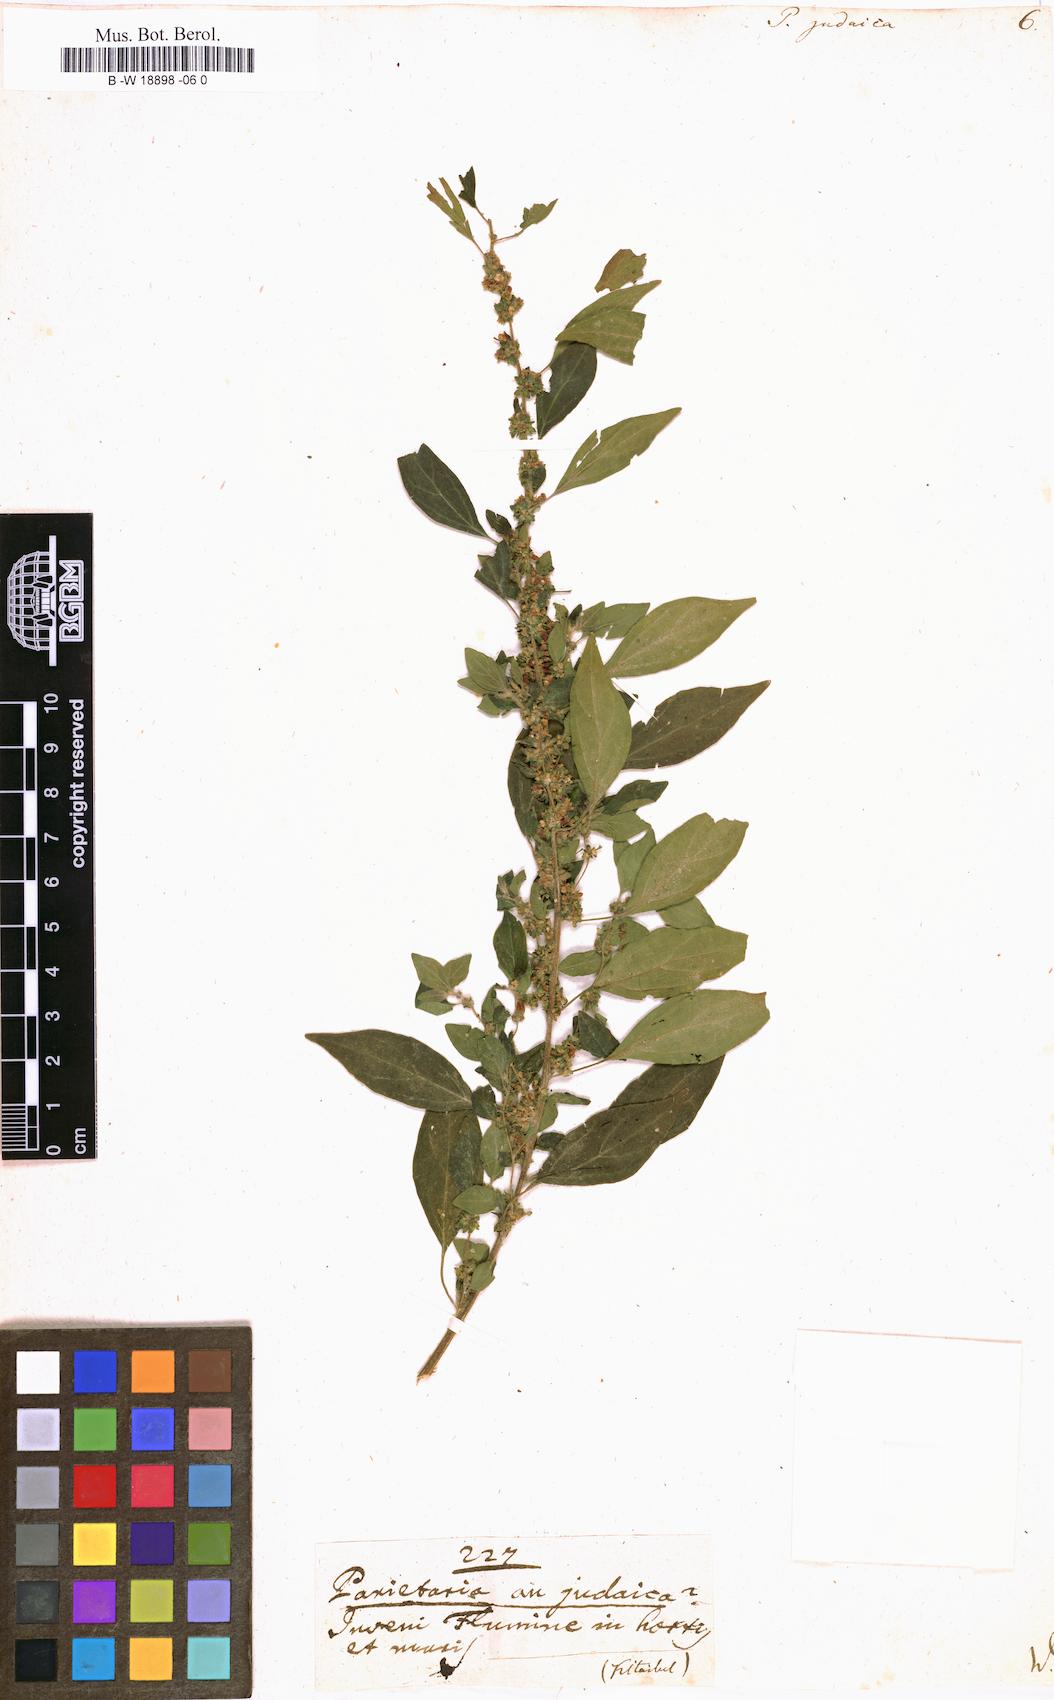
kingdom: Plantae
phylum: Tracheophyta
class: Magnoliopsida
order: Rosales
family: Urticaceae
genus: Parietaria
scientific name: Parietaria judaica
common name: Pellitory-of-the-wall
